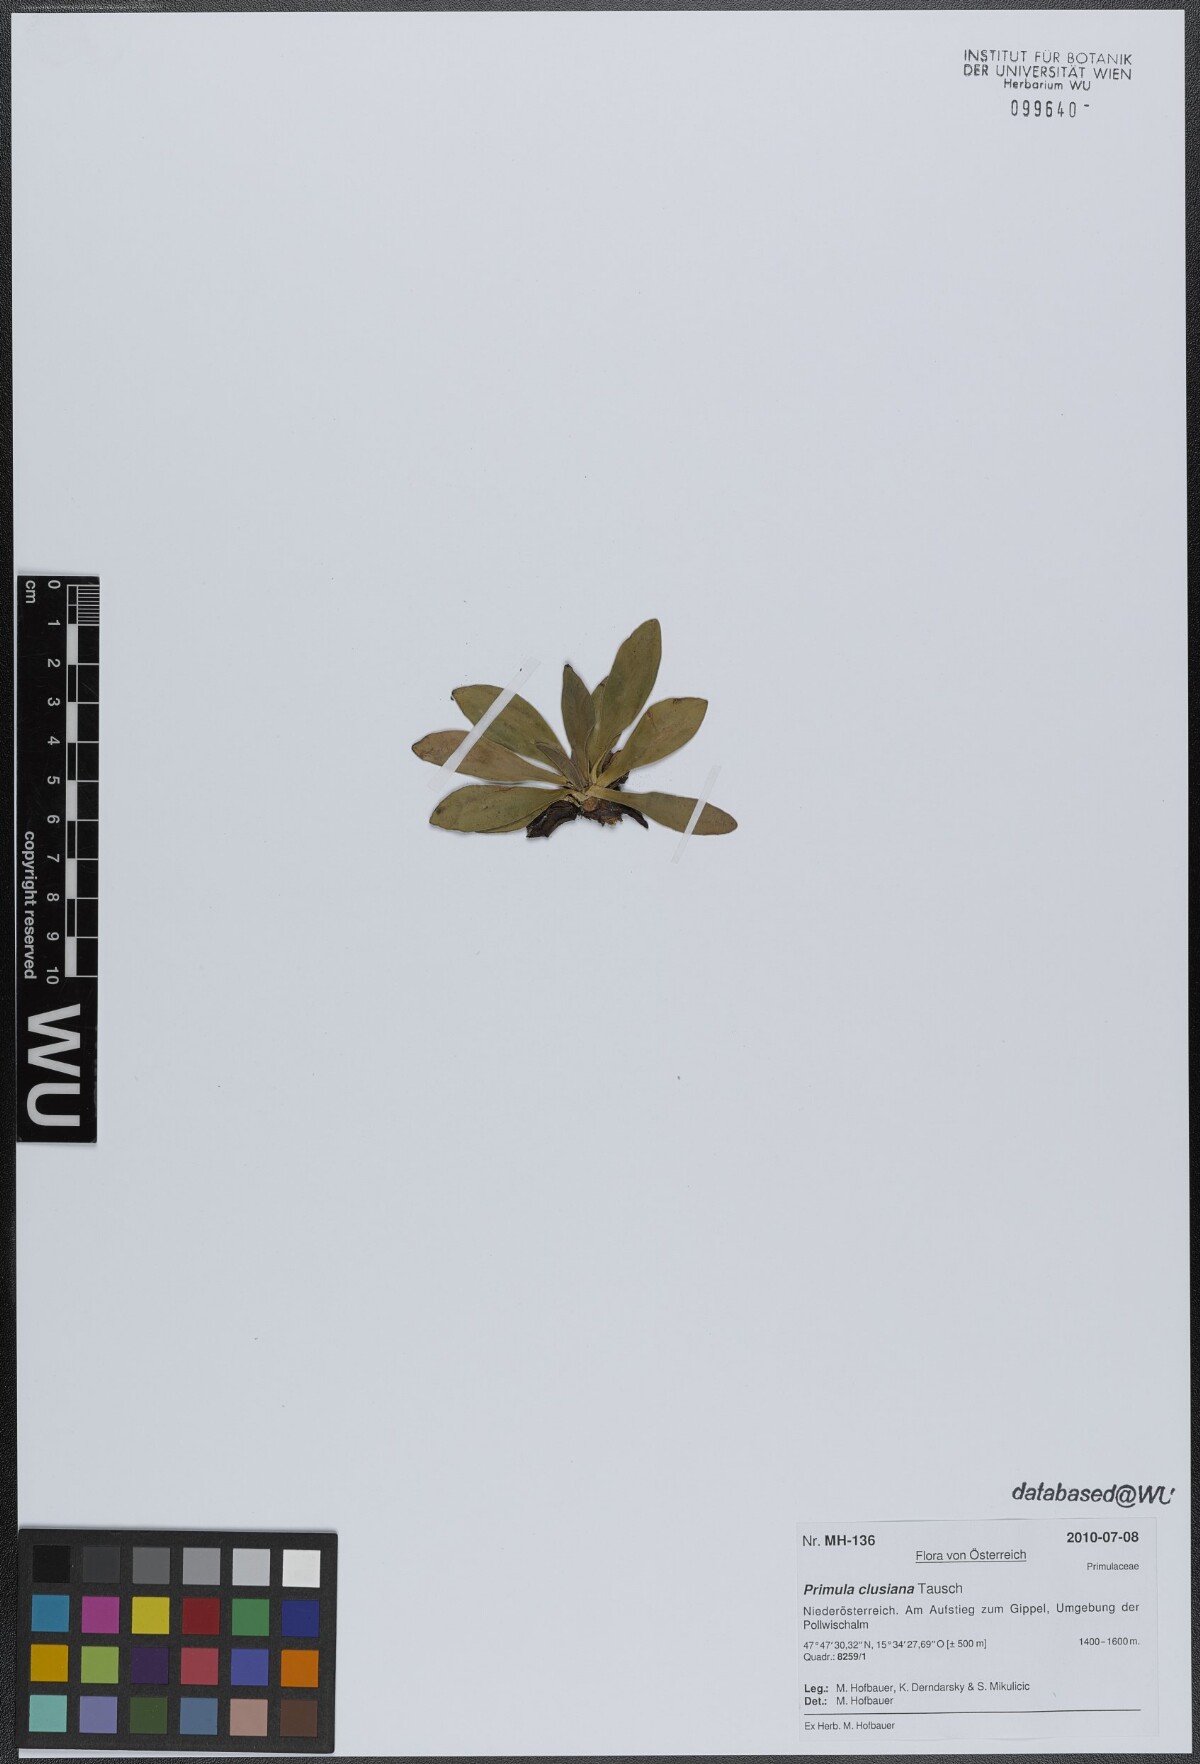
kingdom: Plantae
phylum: Tracheophyta
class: Magnoliopsida
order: Ericales
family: Primulaceae
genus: Primula
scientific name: Primula clusiana
